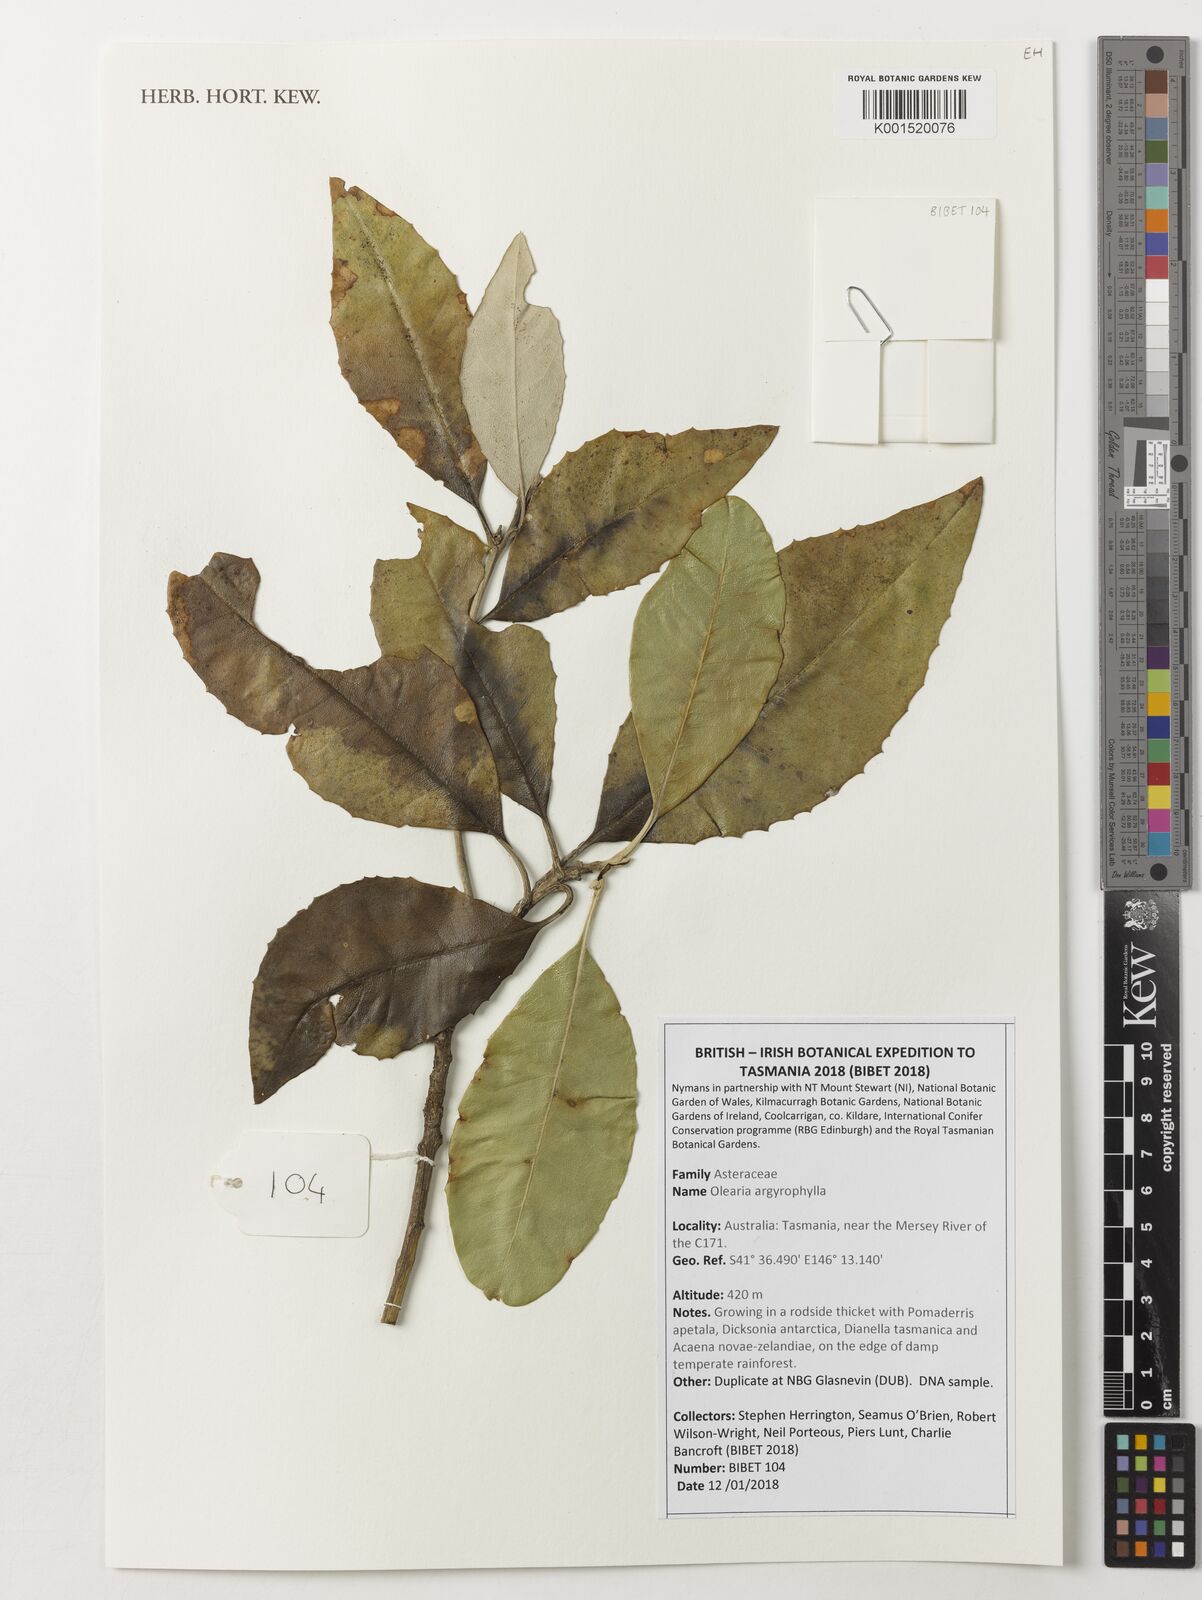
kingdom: Plantae
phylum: Tracheophyta
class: Magnoliopsida
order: Asterales
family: Asteraceae
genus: Olearia
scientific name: Olearia argophylla
